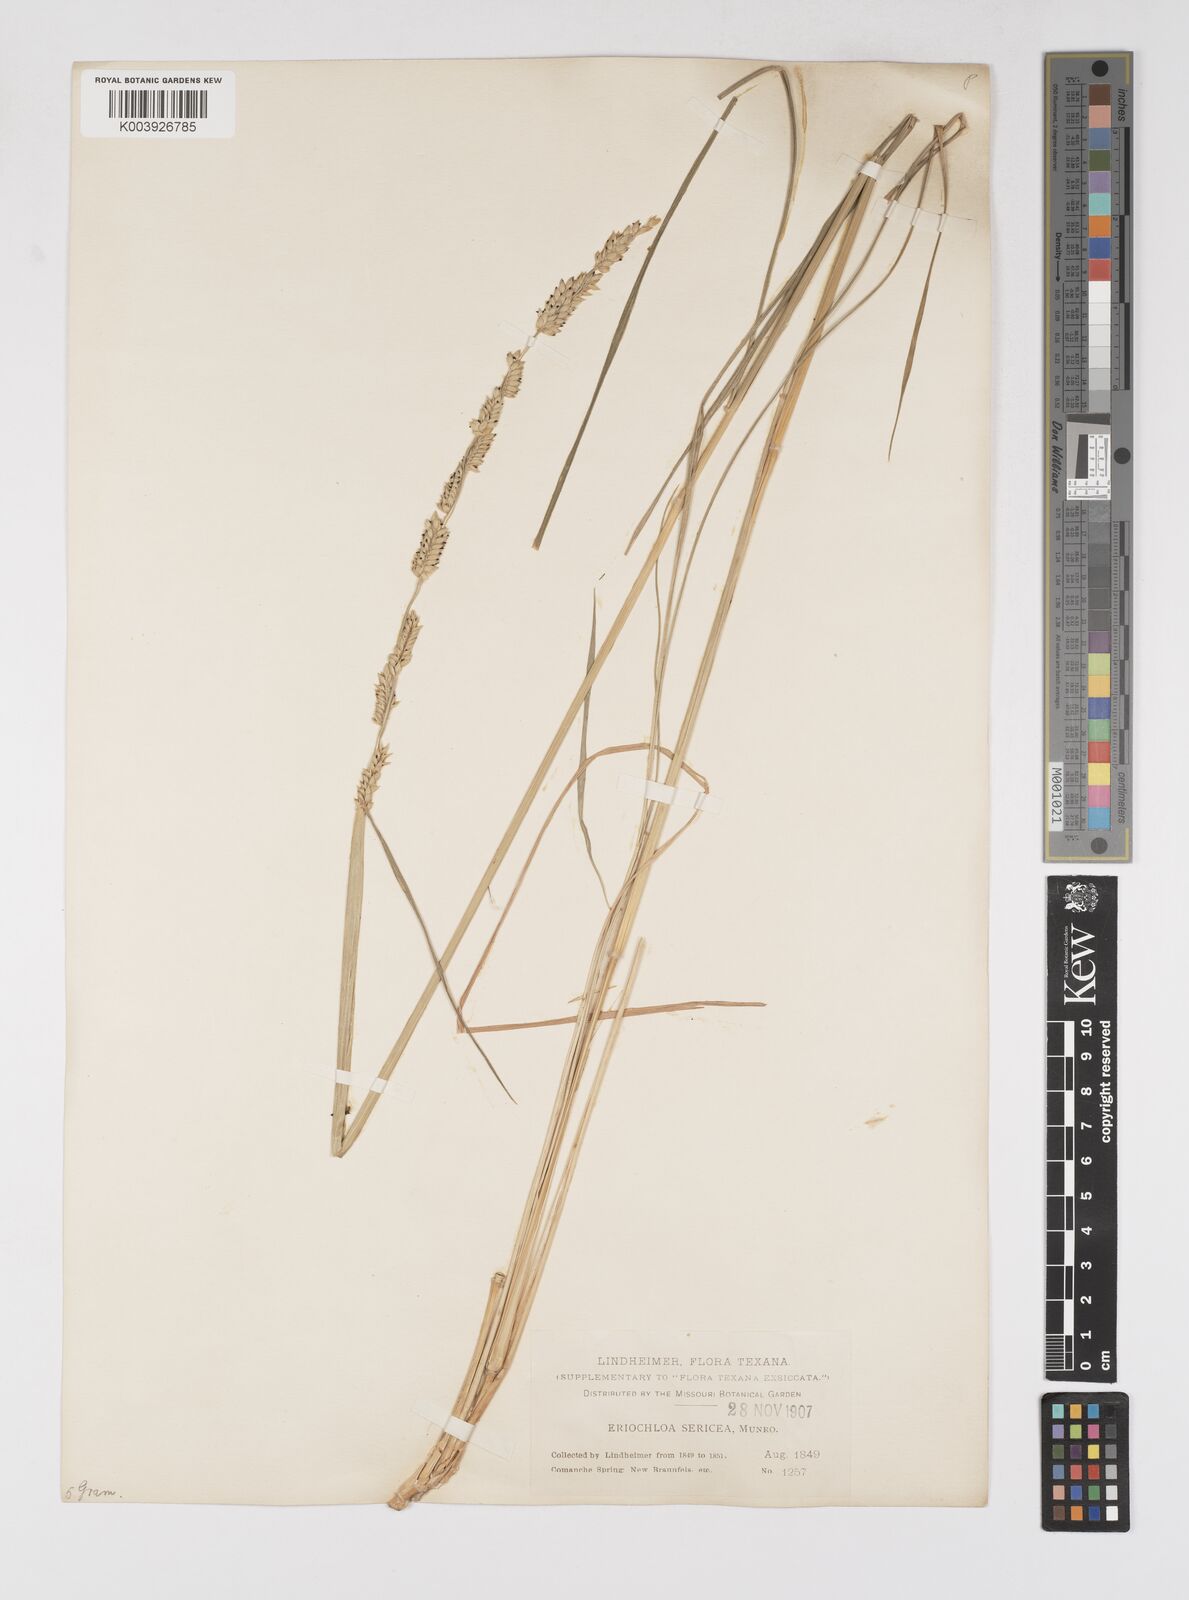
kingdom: Plantae
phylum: Tracheophyta
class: Liliopsida
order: Poales
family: Poaceae
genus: Eriochloa
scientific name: Eriochloa sericea
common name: Texas cup grass
